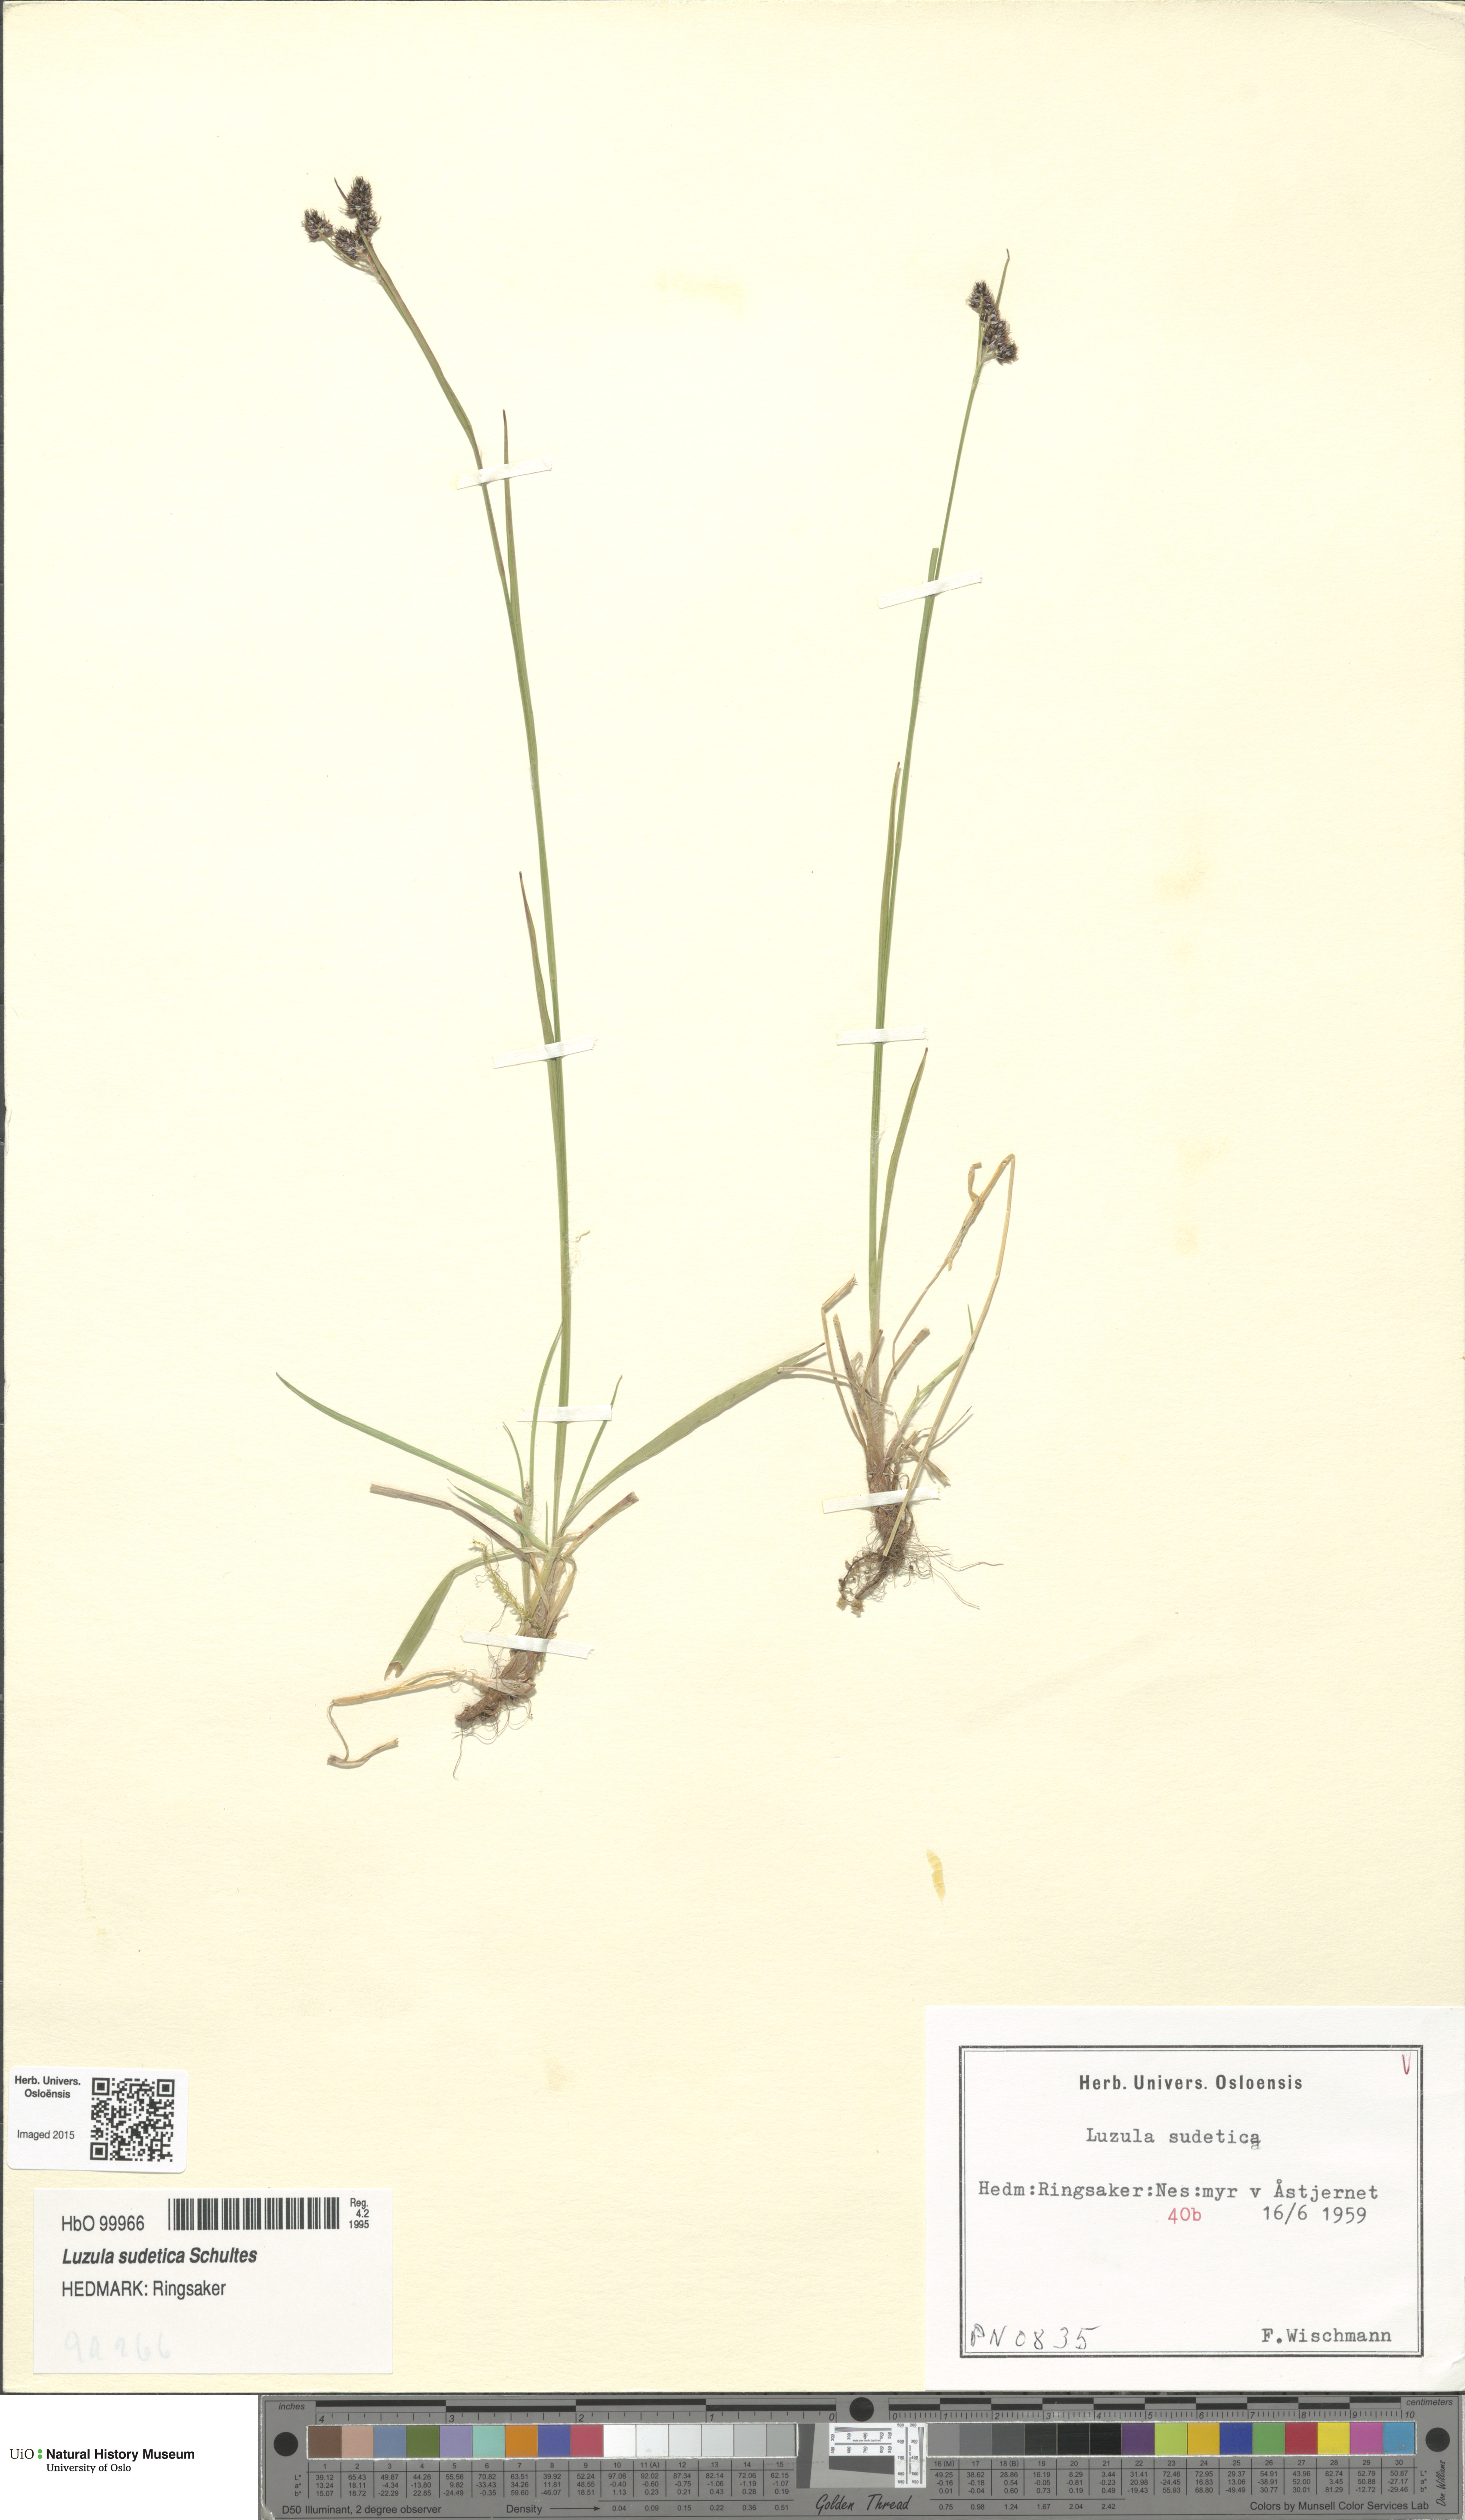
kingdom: Plantae
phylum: Tracheophyta
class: Liliopsida
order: Poales
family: Juncaceae
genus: Luzula
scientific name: Luzula sudetica
